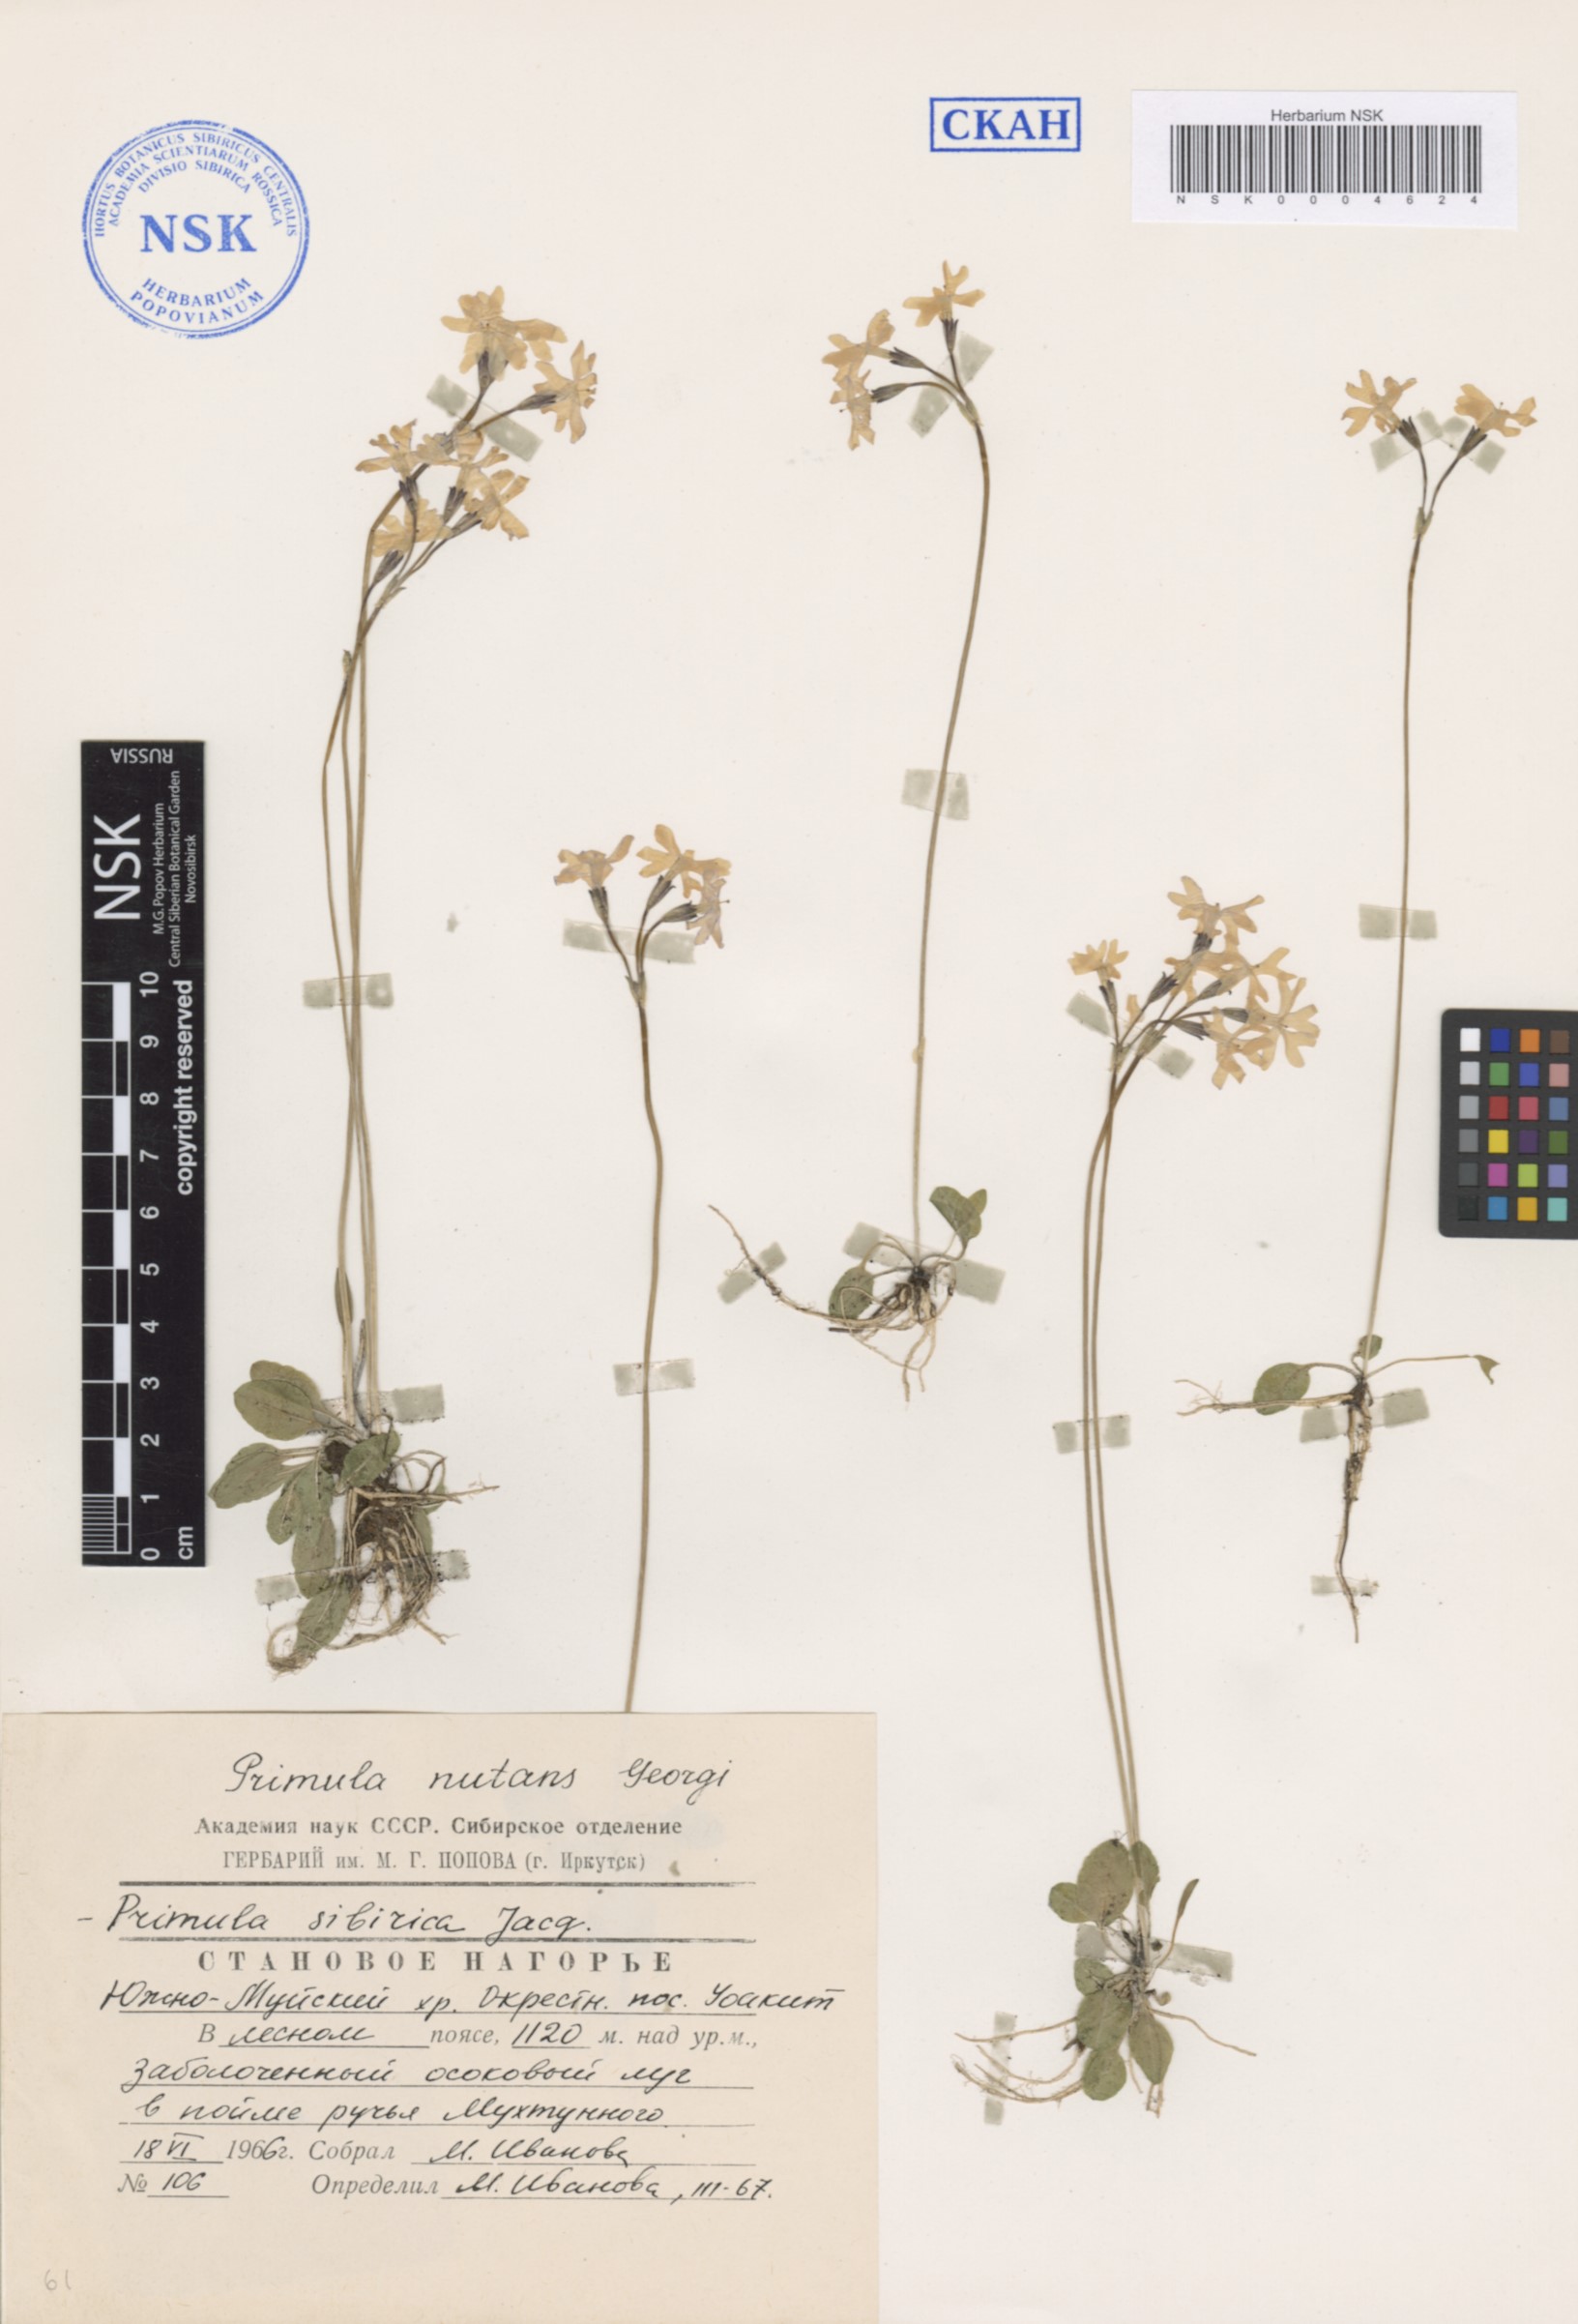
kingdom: Plantae
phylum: Tracheophyta
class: Magnoliopsida
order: Ericales
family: Primulaceae
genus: Primula
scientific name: Primula nutans
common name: Siberian primrose
